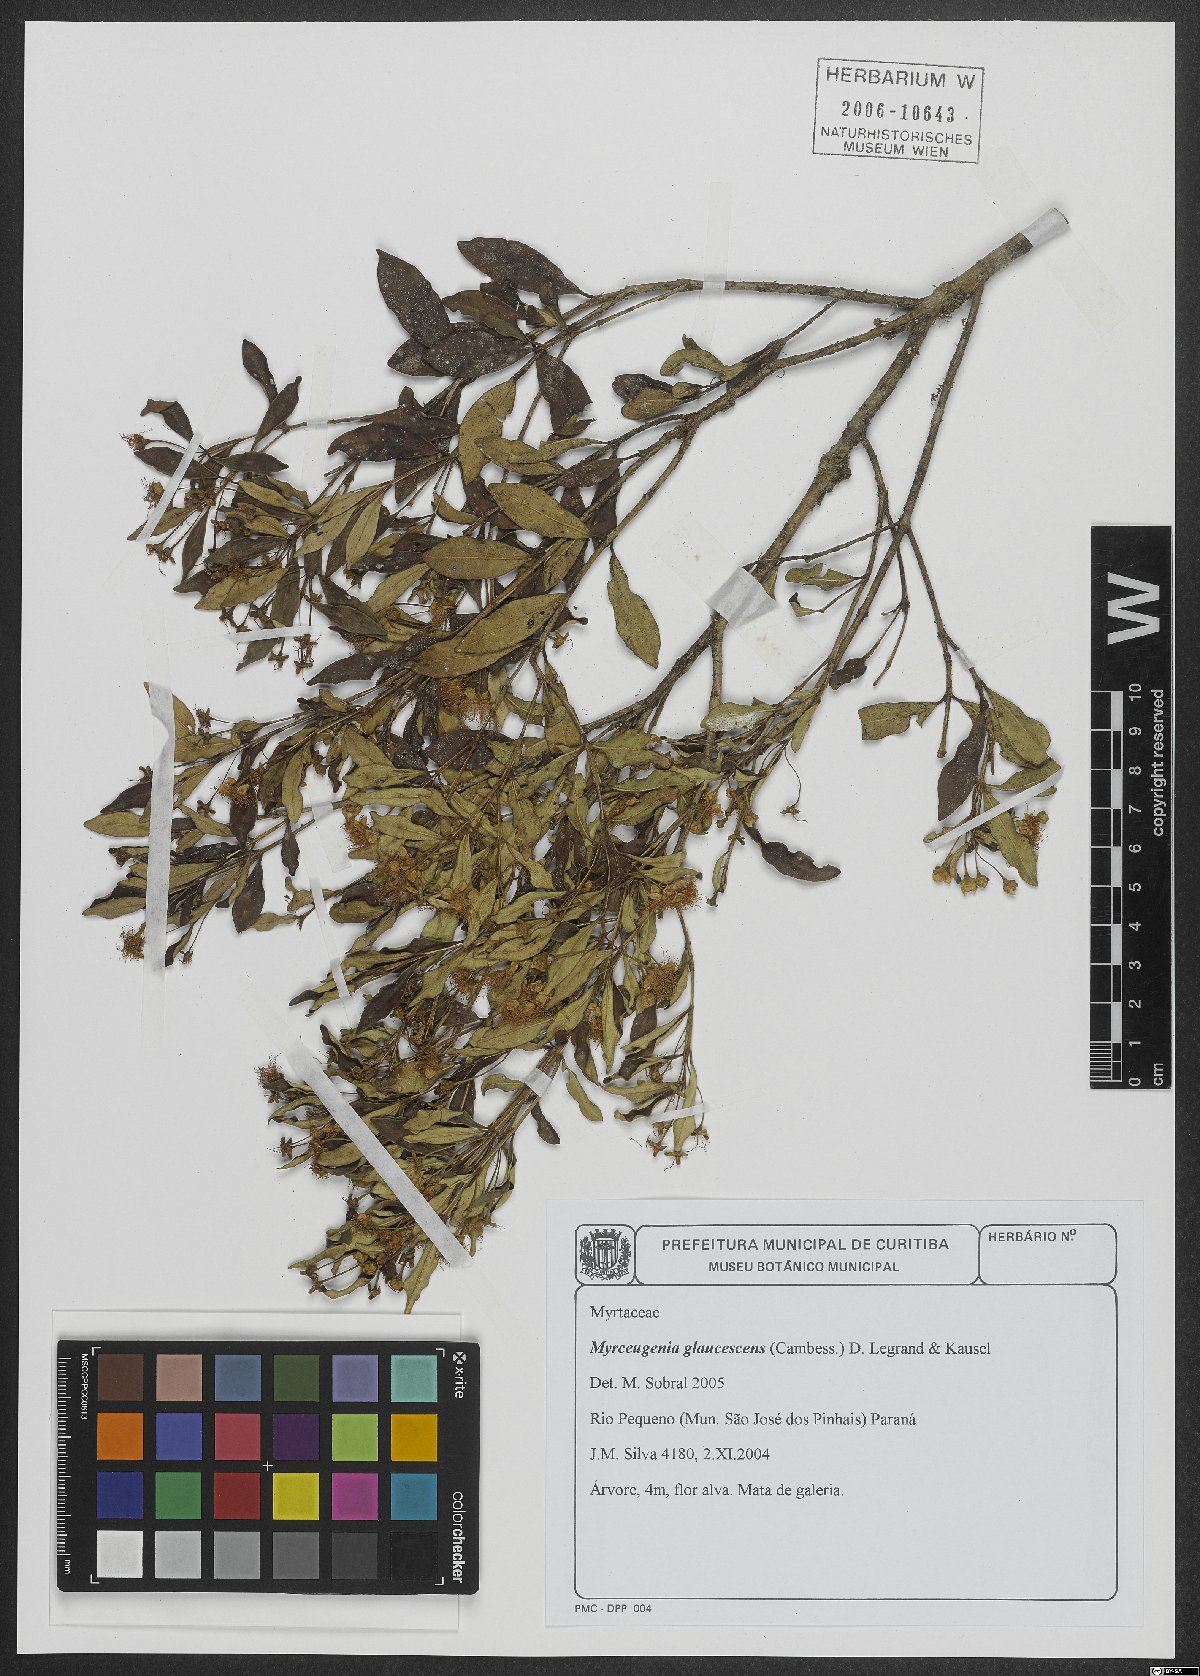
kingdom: Plantae
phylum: Tracheophyta
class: Magnoliopsida
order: Myrtales
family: Myrtaceae
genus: Myrceugenia
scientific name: Myrceugenia glaucescens
